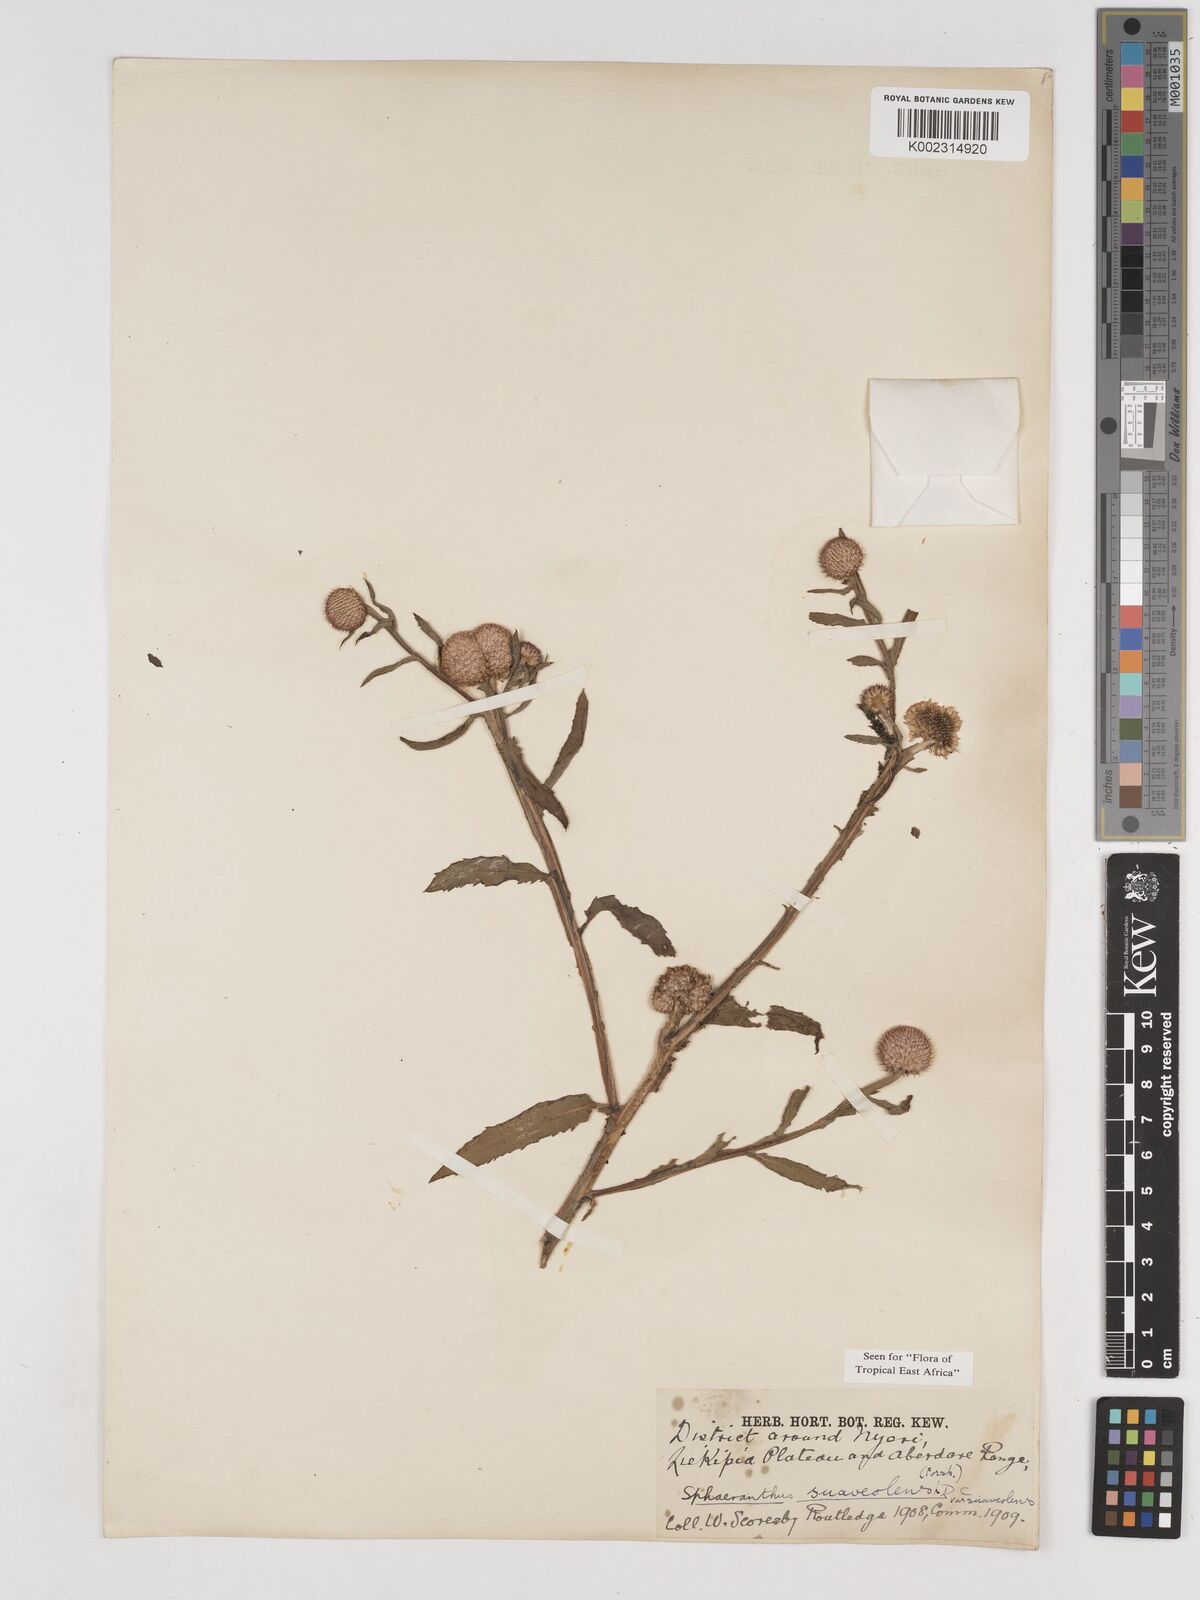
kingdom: Plantae
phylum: Tracheophyta
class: Magnoliopsida
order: Asterales
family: Asteraceae
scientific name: Asteraceae
